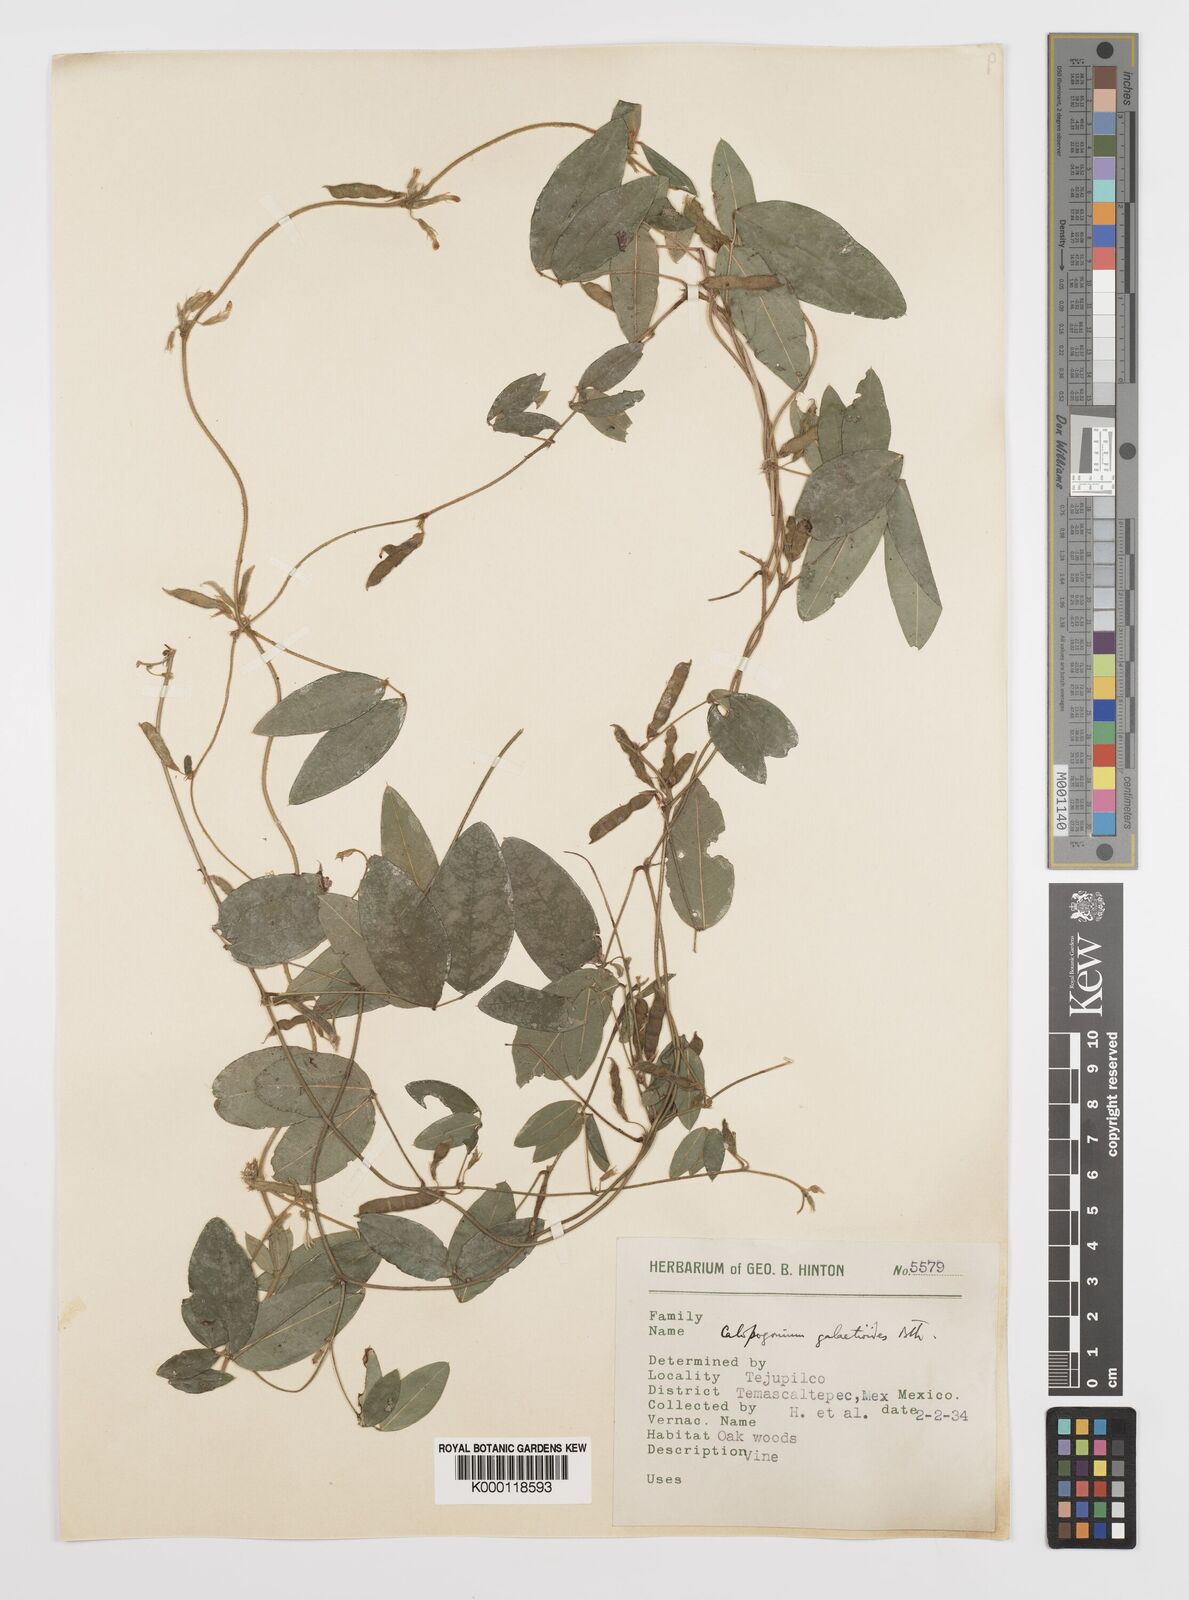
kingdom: Plantae
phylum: Tracheophyta
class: Magnoliopsida
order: Fabales
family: Fabaceae
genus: Calopogonium
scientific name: Calopogonium
